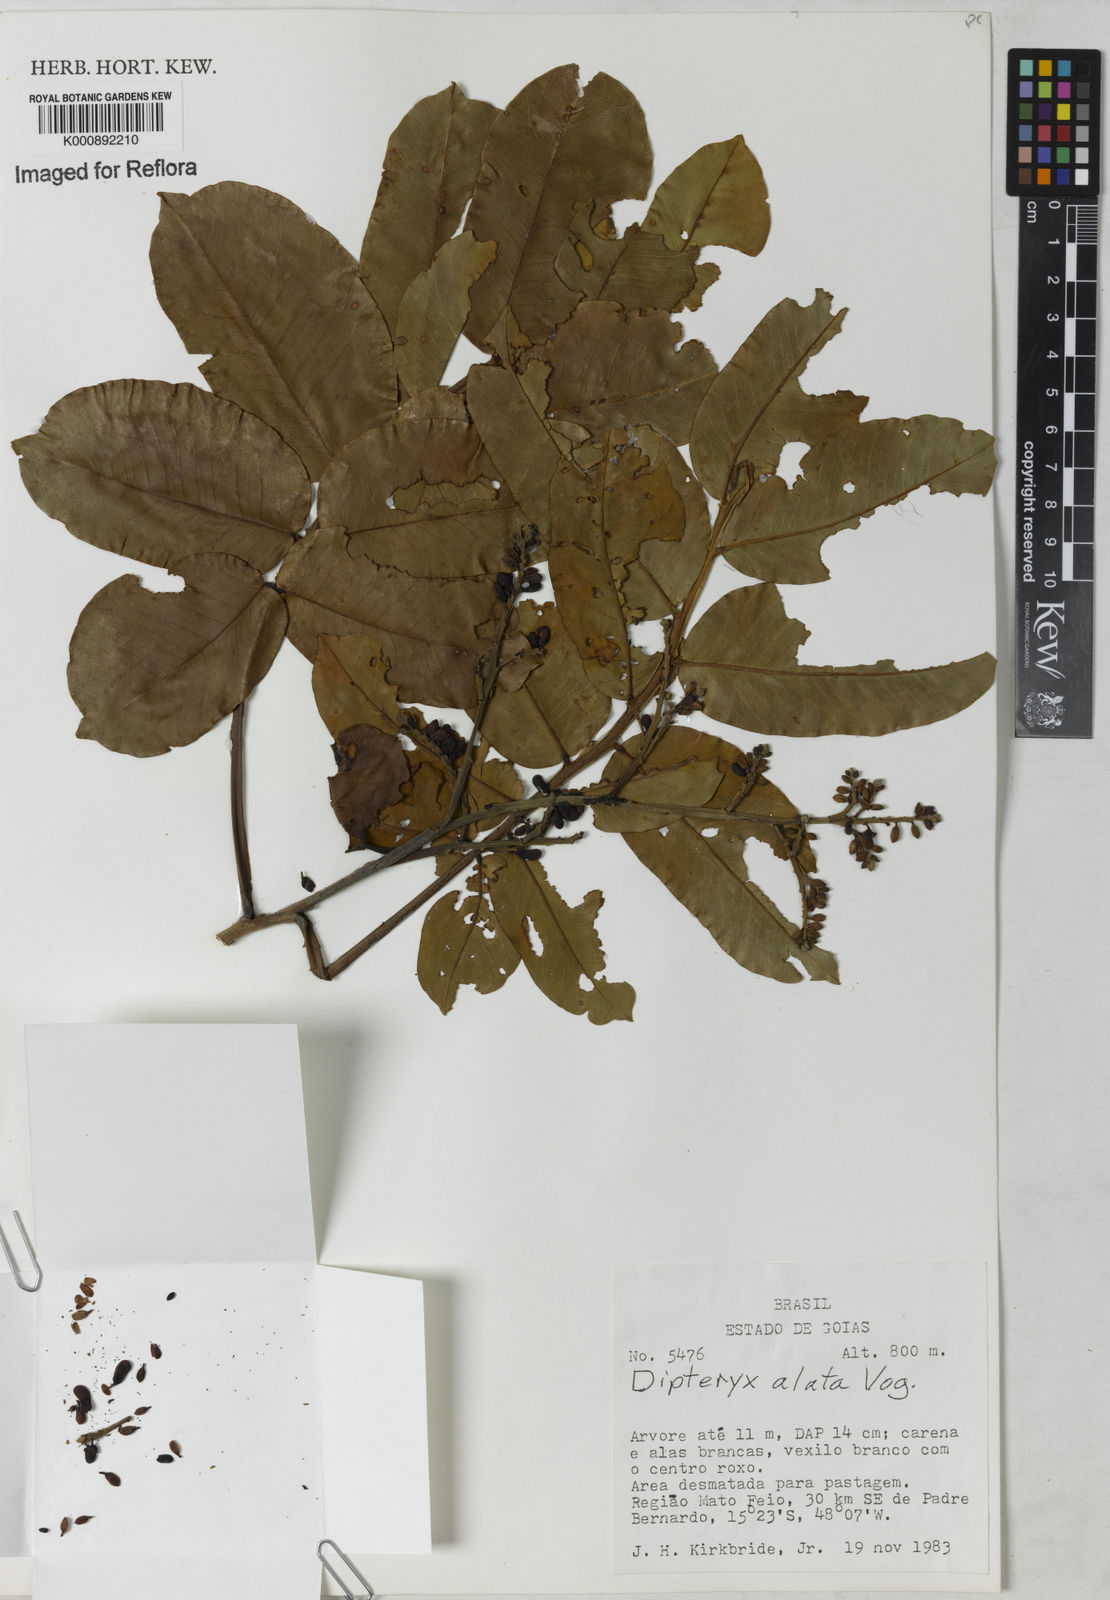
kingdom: Plantae
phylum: Tracheophyta
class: Magnoliopsida
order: Fabales
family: Fabaceae
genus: Dipteryx
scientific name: Dipteryx alata
